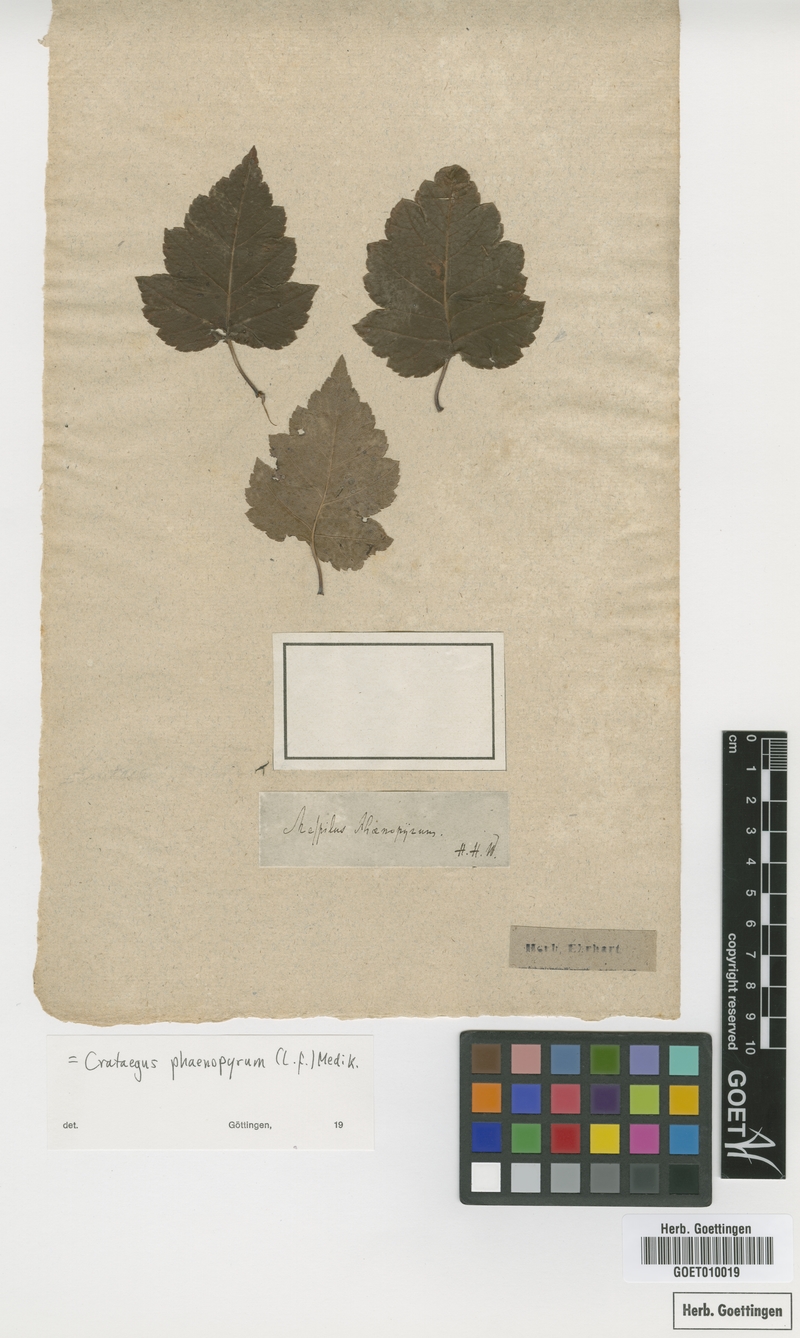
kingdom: Plantae
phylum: Tracheophyta
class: Magnoliopsida
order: Rosales
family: Rosaceae
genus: Crataegus
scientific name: Crataegus phaenopyrum
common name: Washington hawthorn
